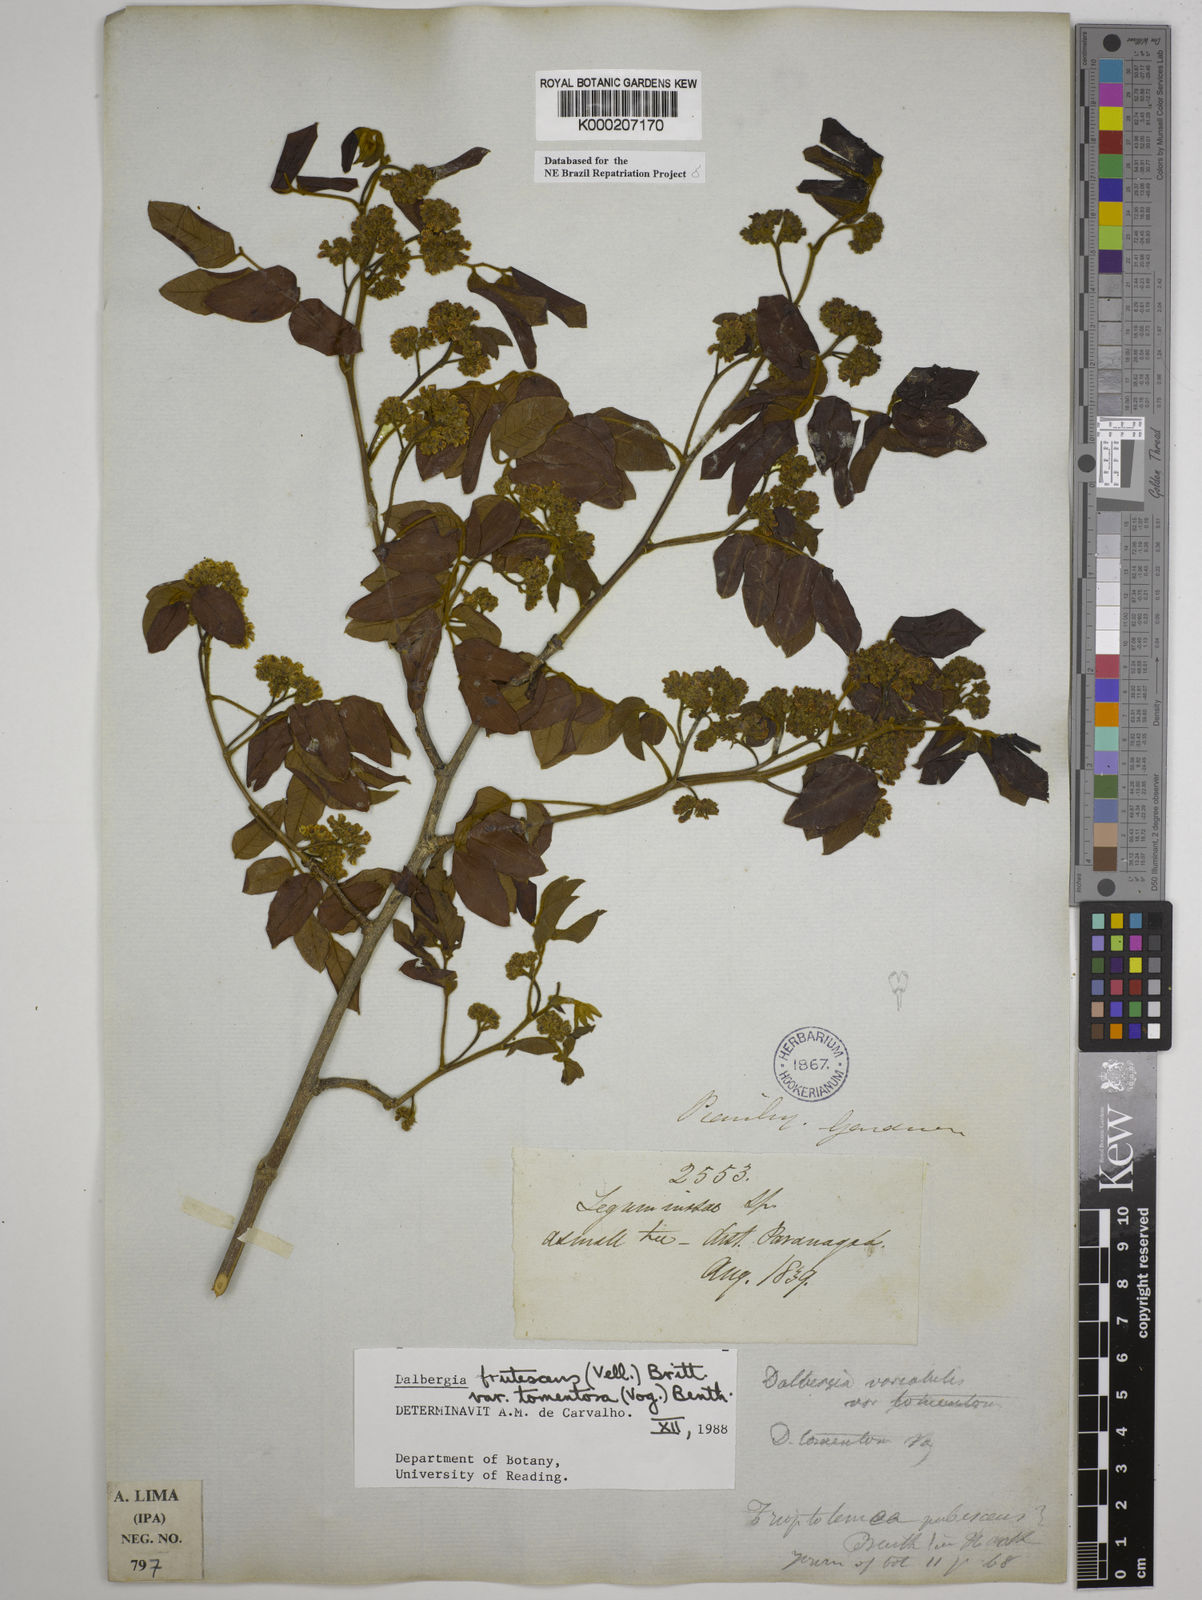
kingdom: Plantae
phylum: Tracheophyta
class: Magnoliopsida
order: Fabales
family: Fabaceae
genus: Dalbergia
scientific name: Dalbergia frutescens
